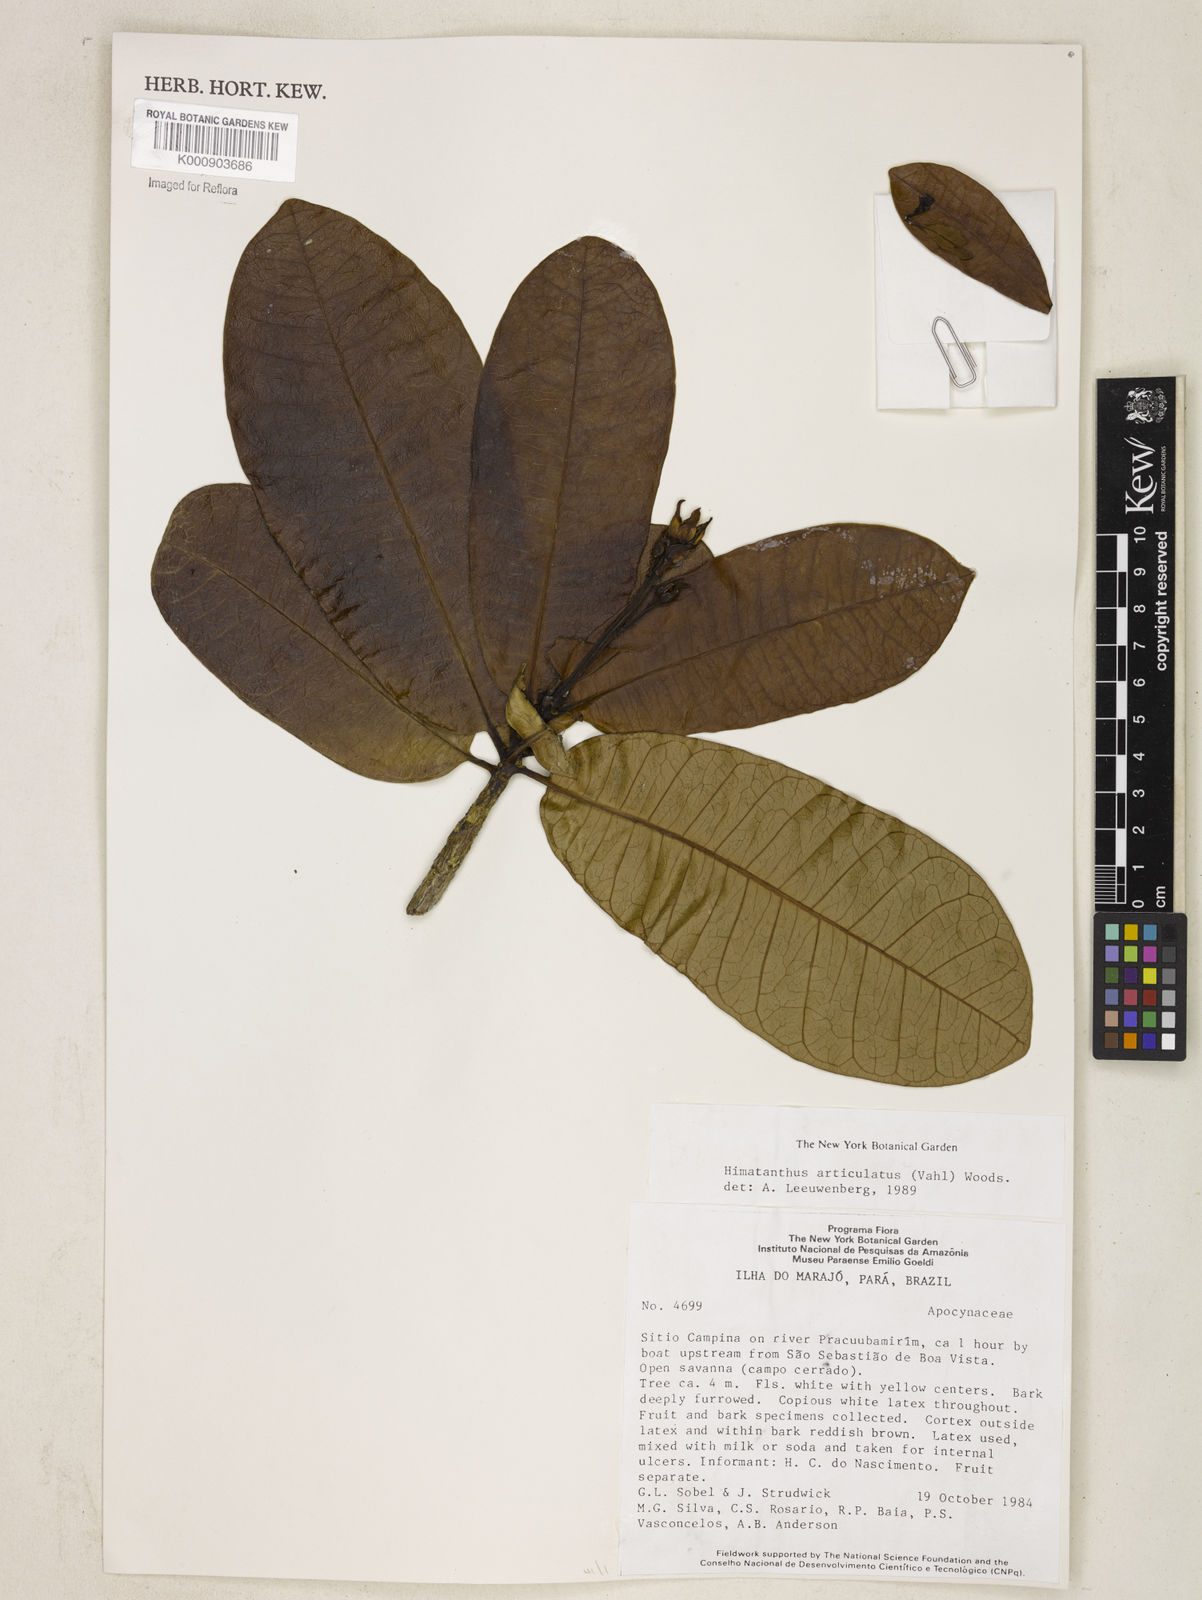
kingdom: Plantae
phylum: Tracheophyta
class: Magnoliopsida
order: Gentianales
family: Apocynaceae
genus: Himatanthus
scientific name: Himatanthus articulatus
